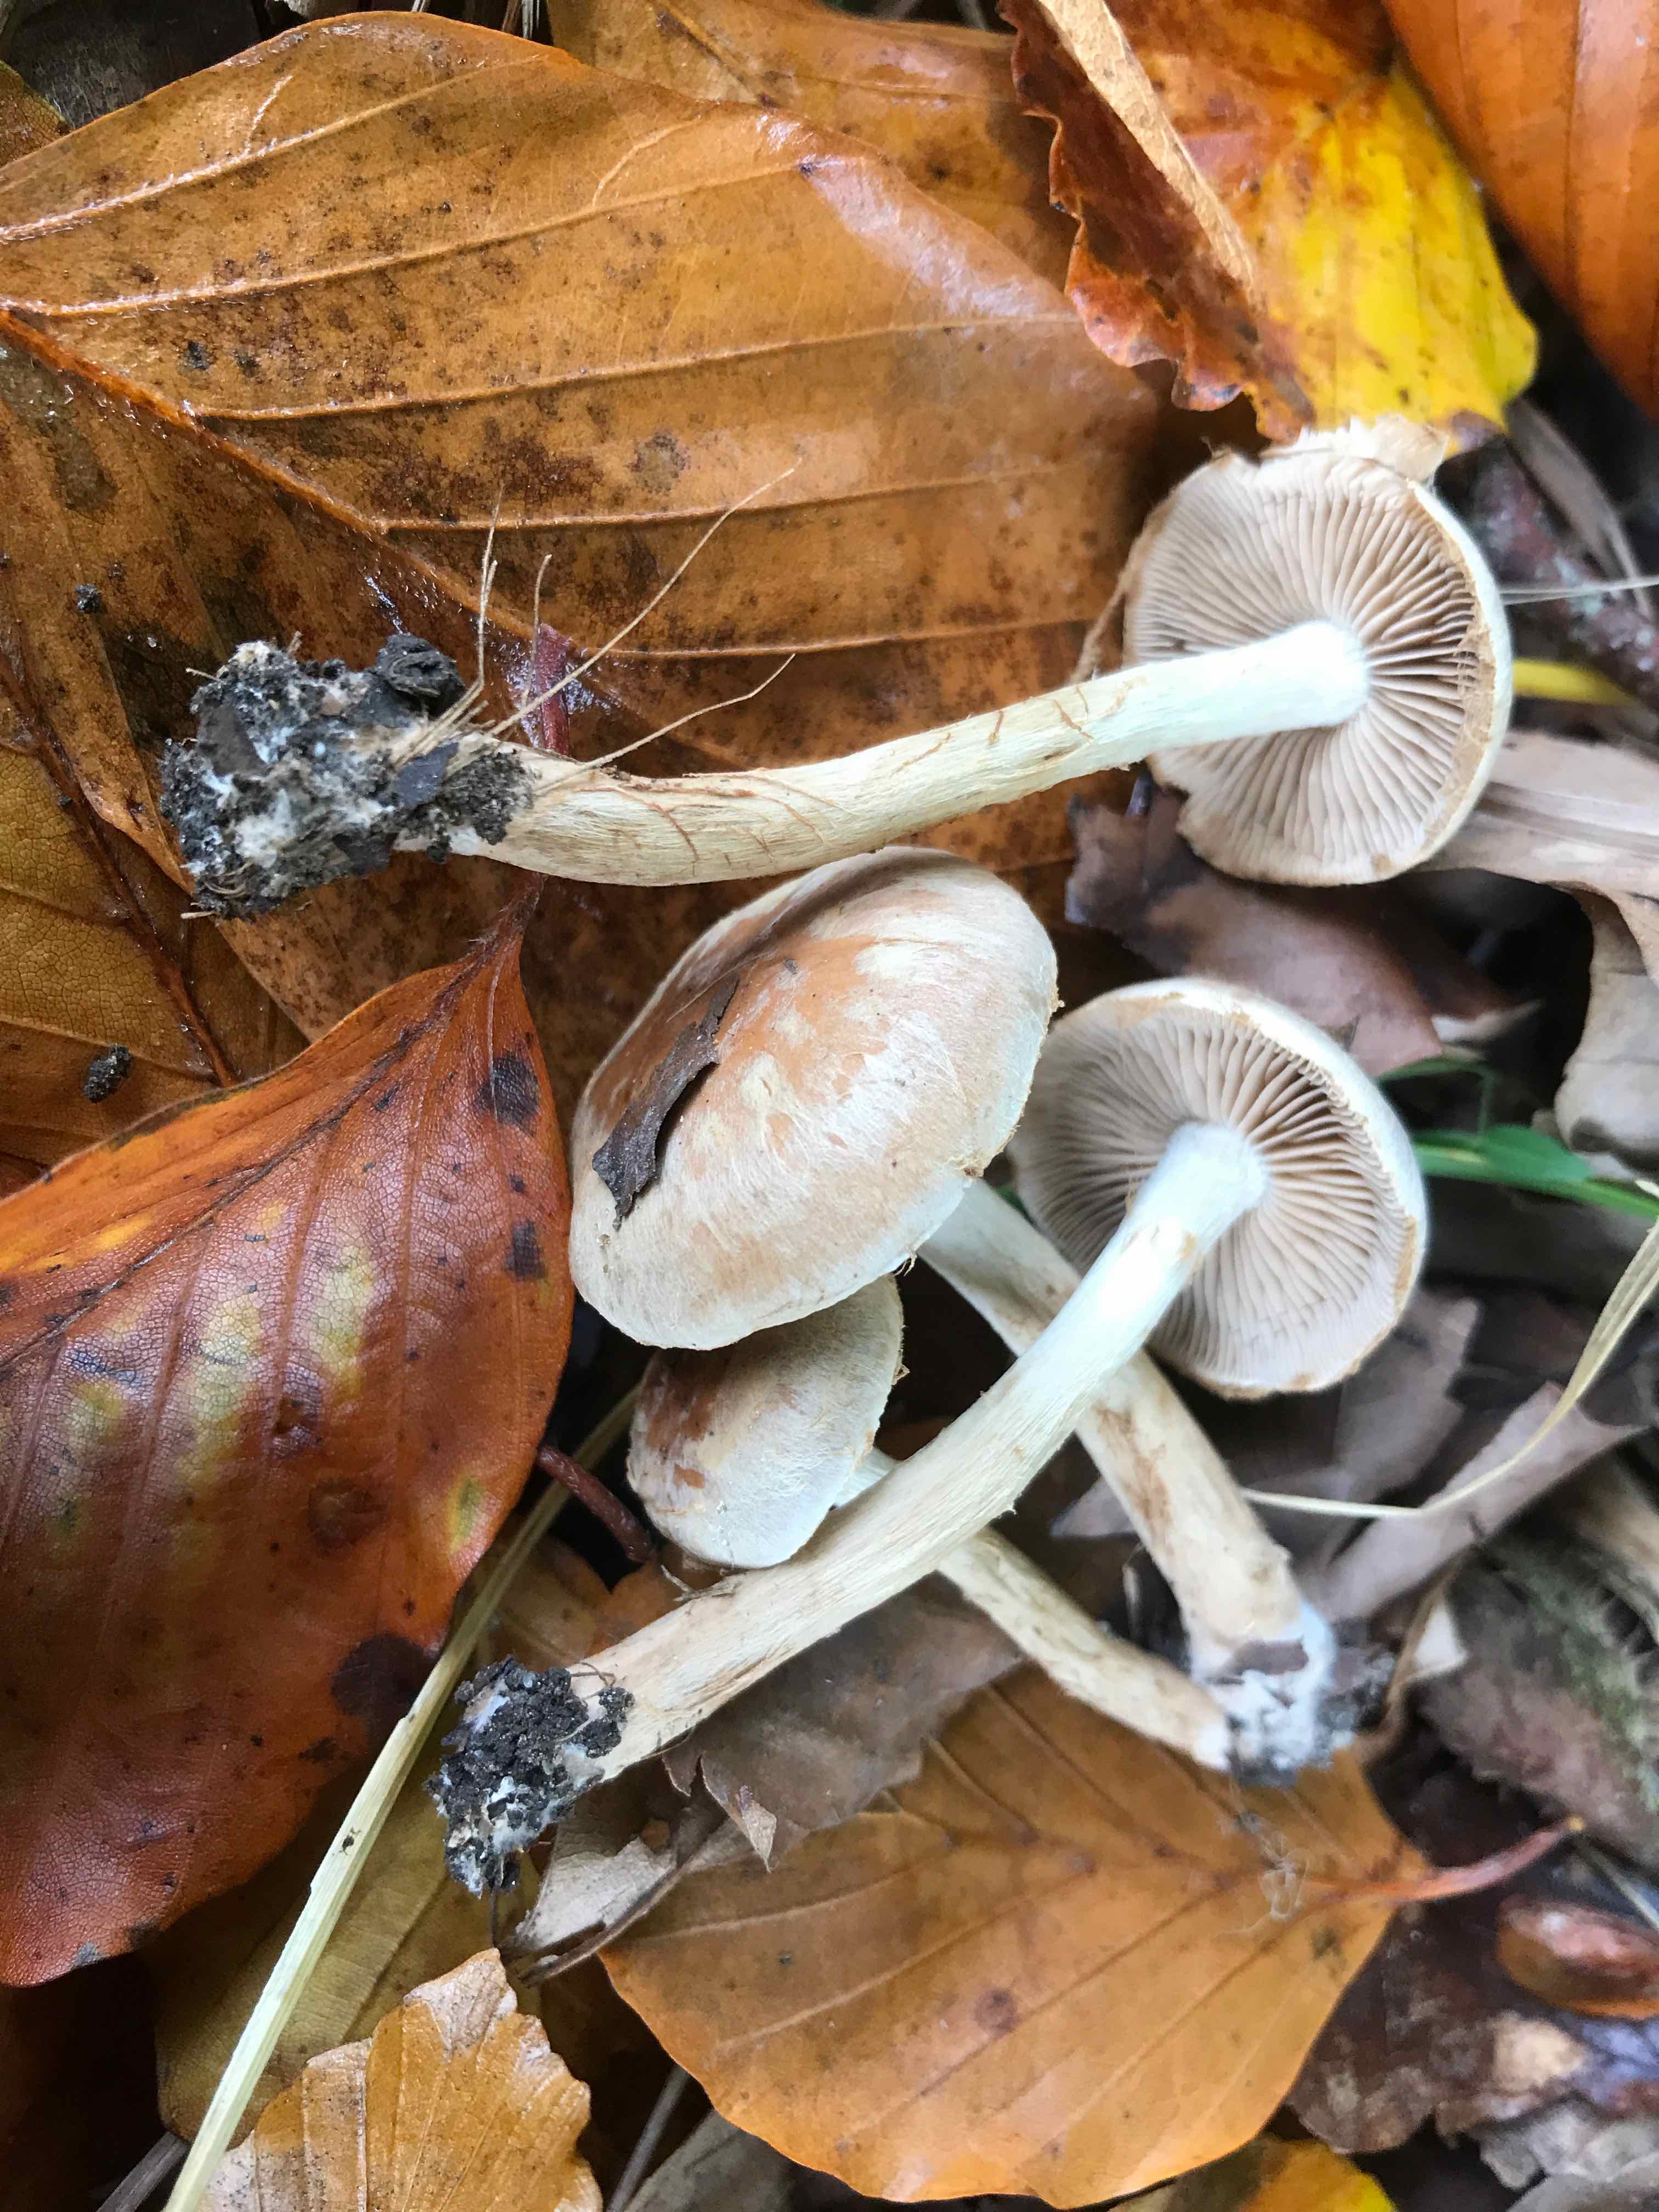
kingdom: Fungi
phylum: Basidiomycota
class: Agaricomycetes
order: Agaricales
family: Hymenogastraceae
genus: Hebeloma
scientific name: Hebeloma mesophaeum
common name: lerbrun tåreblad
